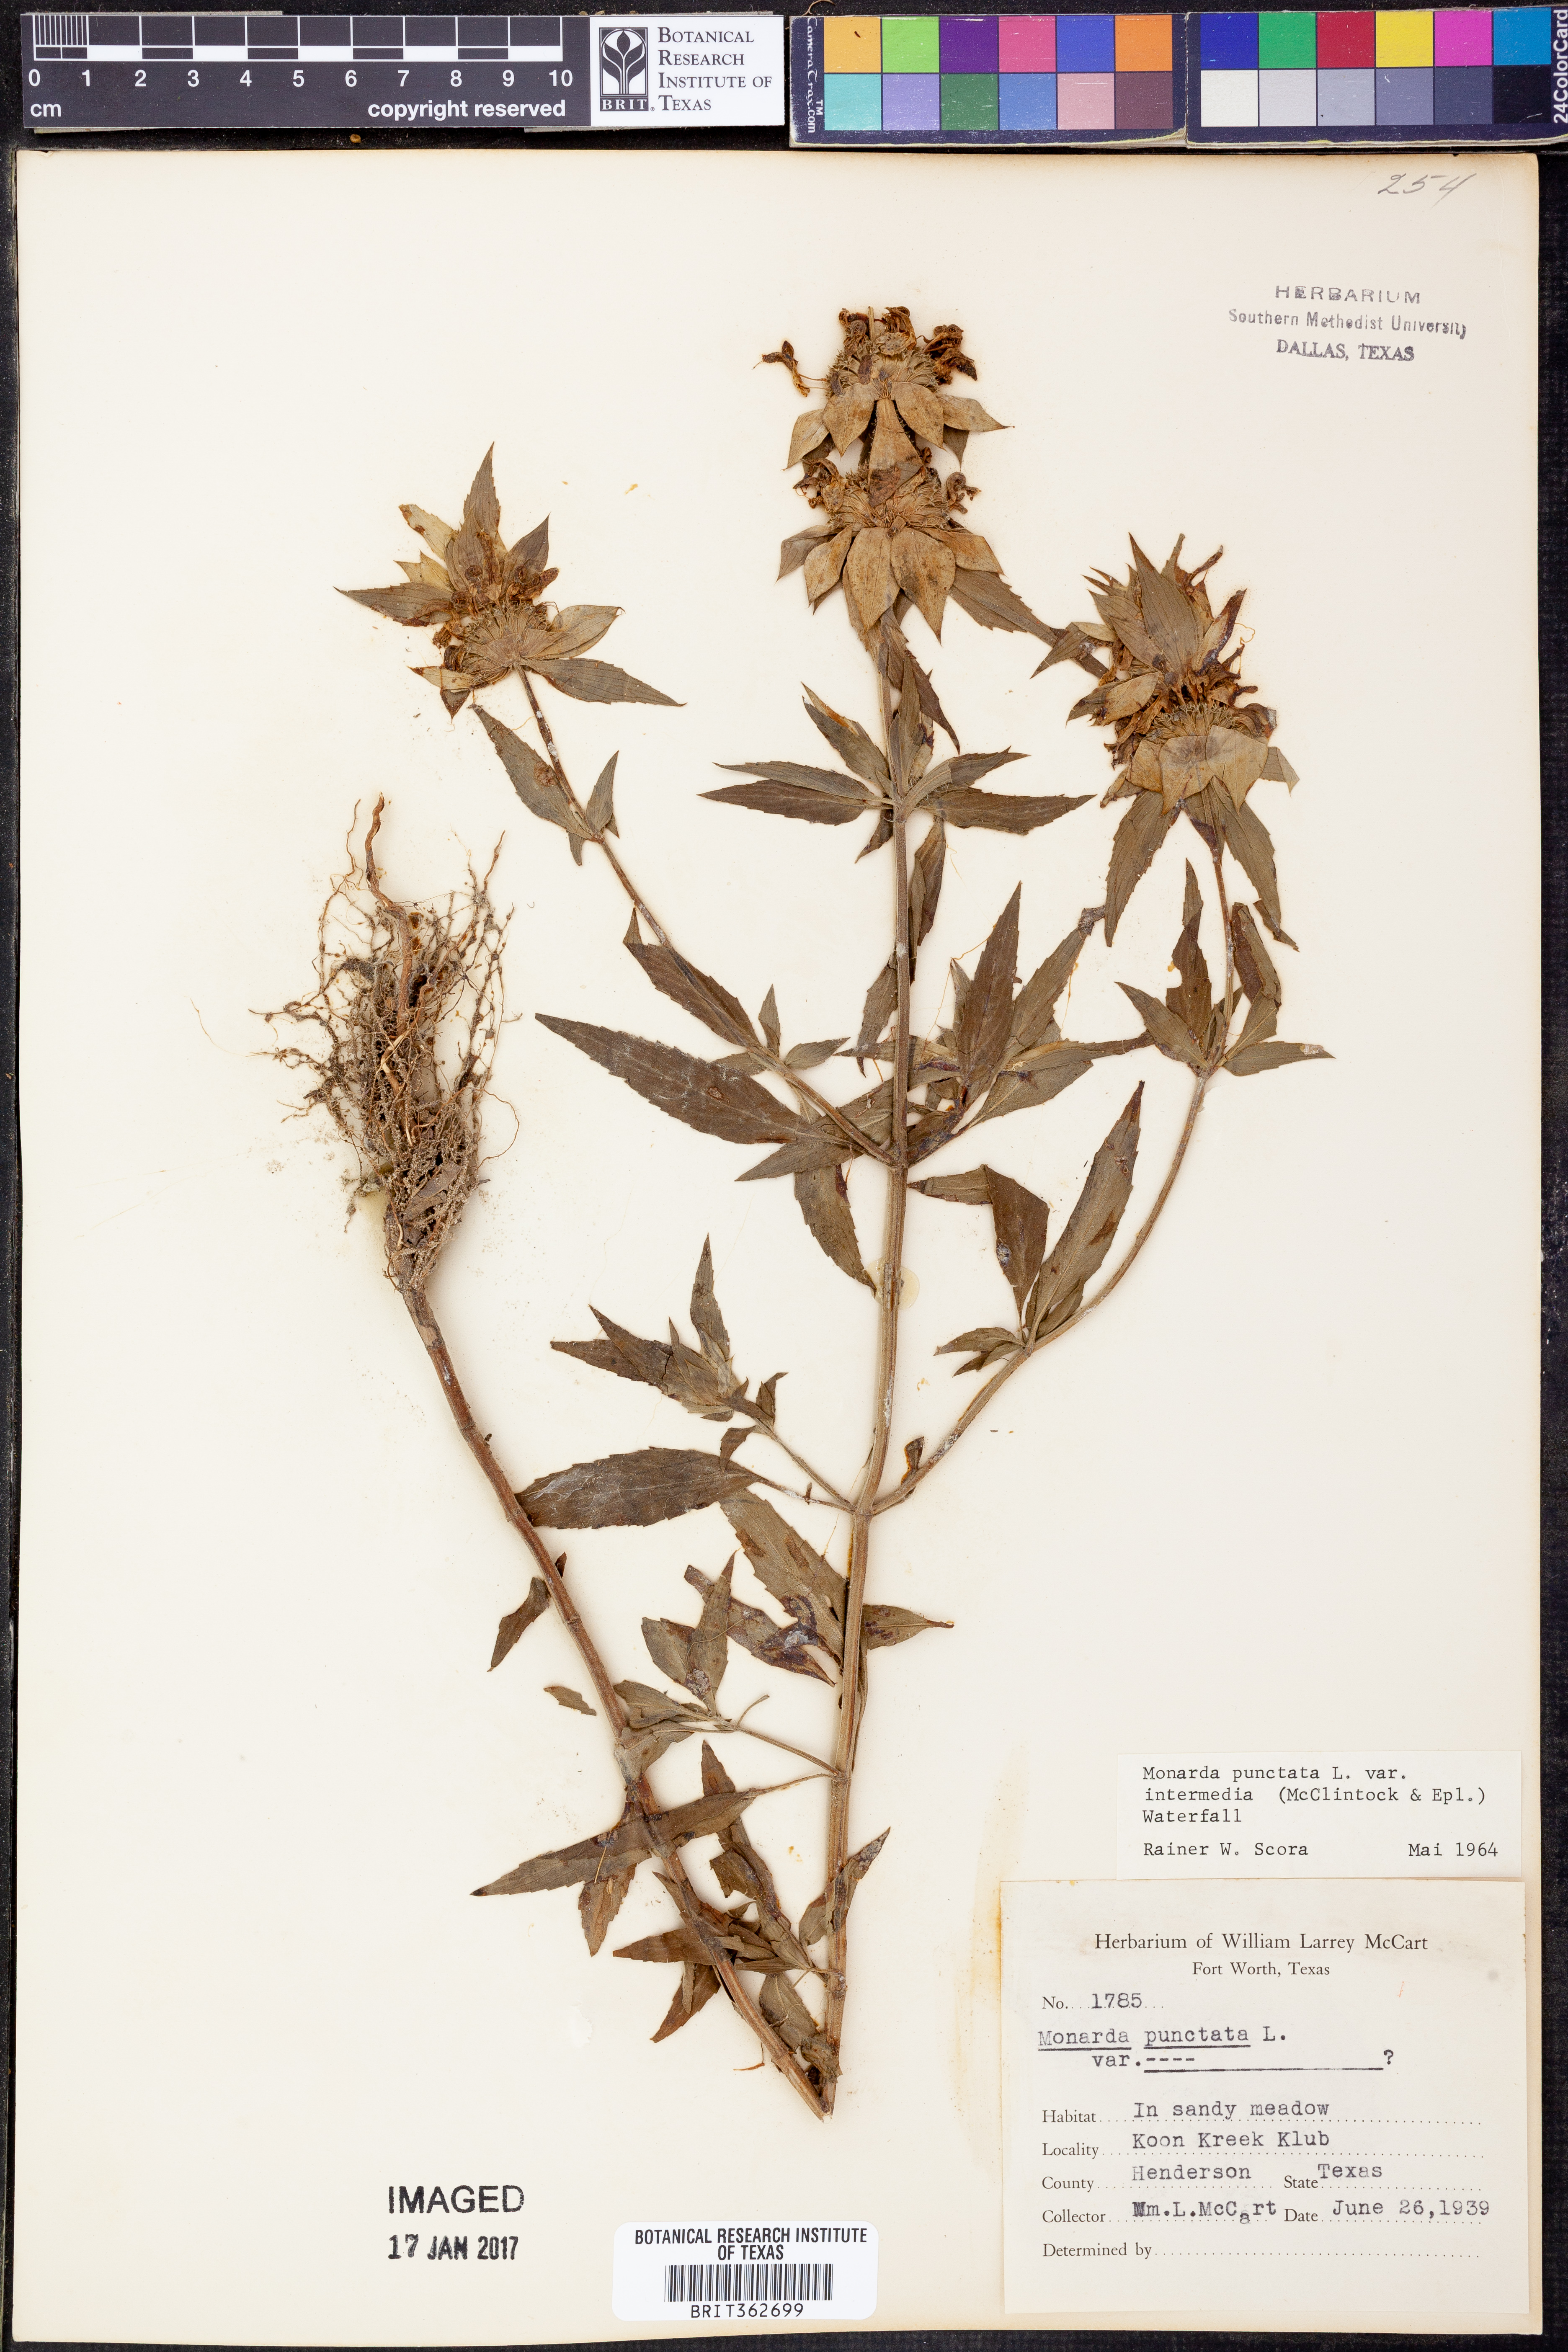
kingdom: Plantae
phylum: Tracheophyta
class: Magnoliopsida
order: Lamiales
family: Lamiaceae
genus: Monarda
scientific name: Monarda punctata
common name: Dotted monarda
